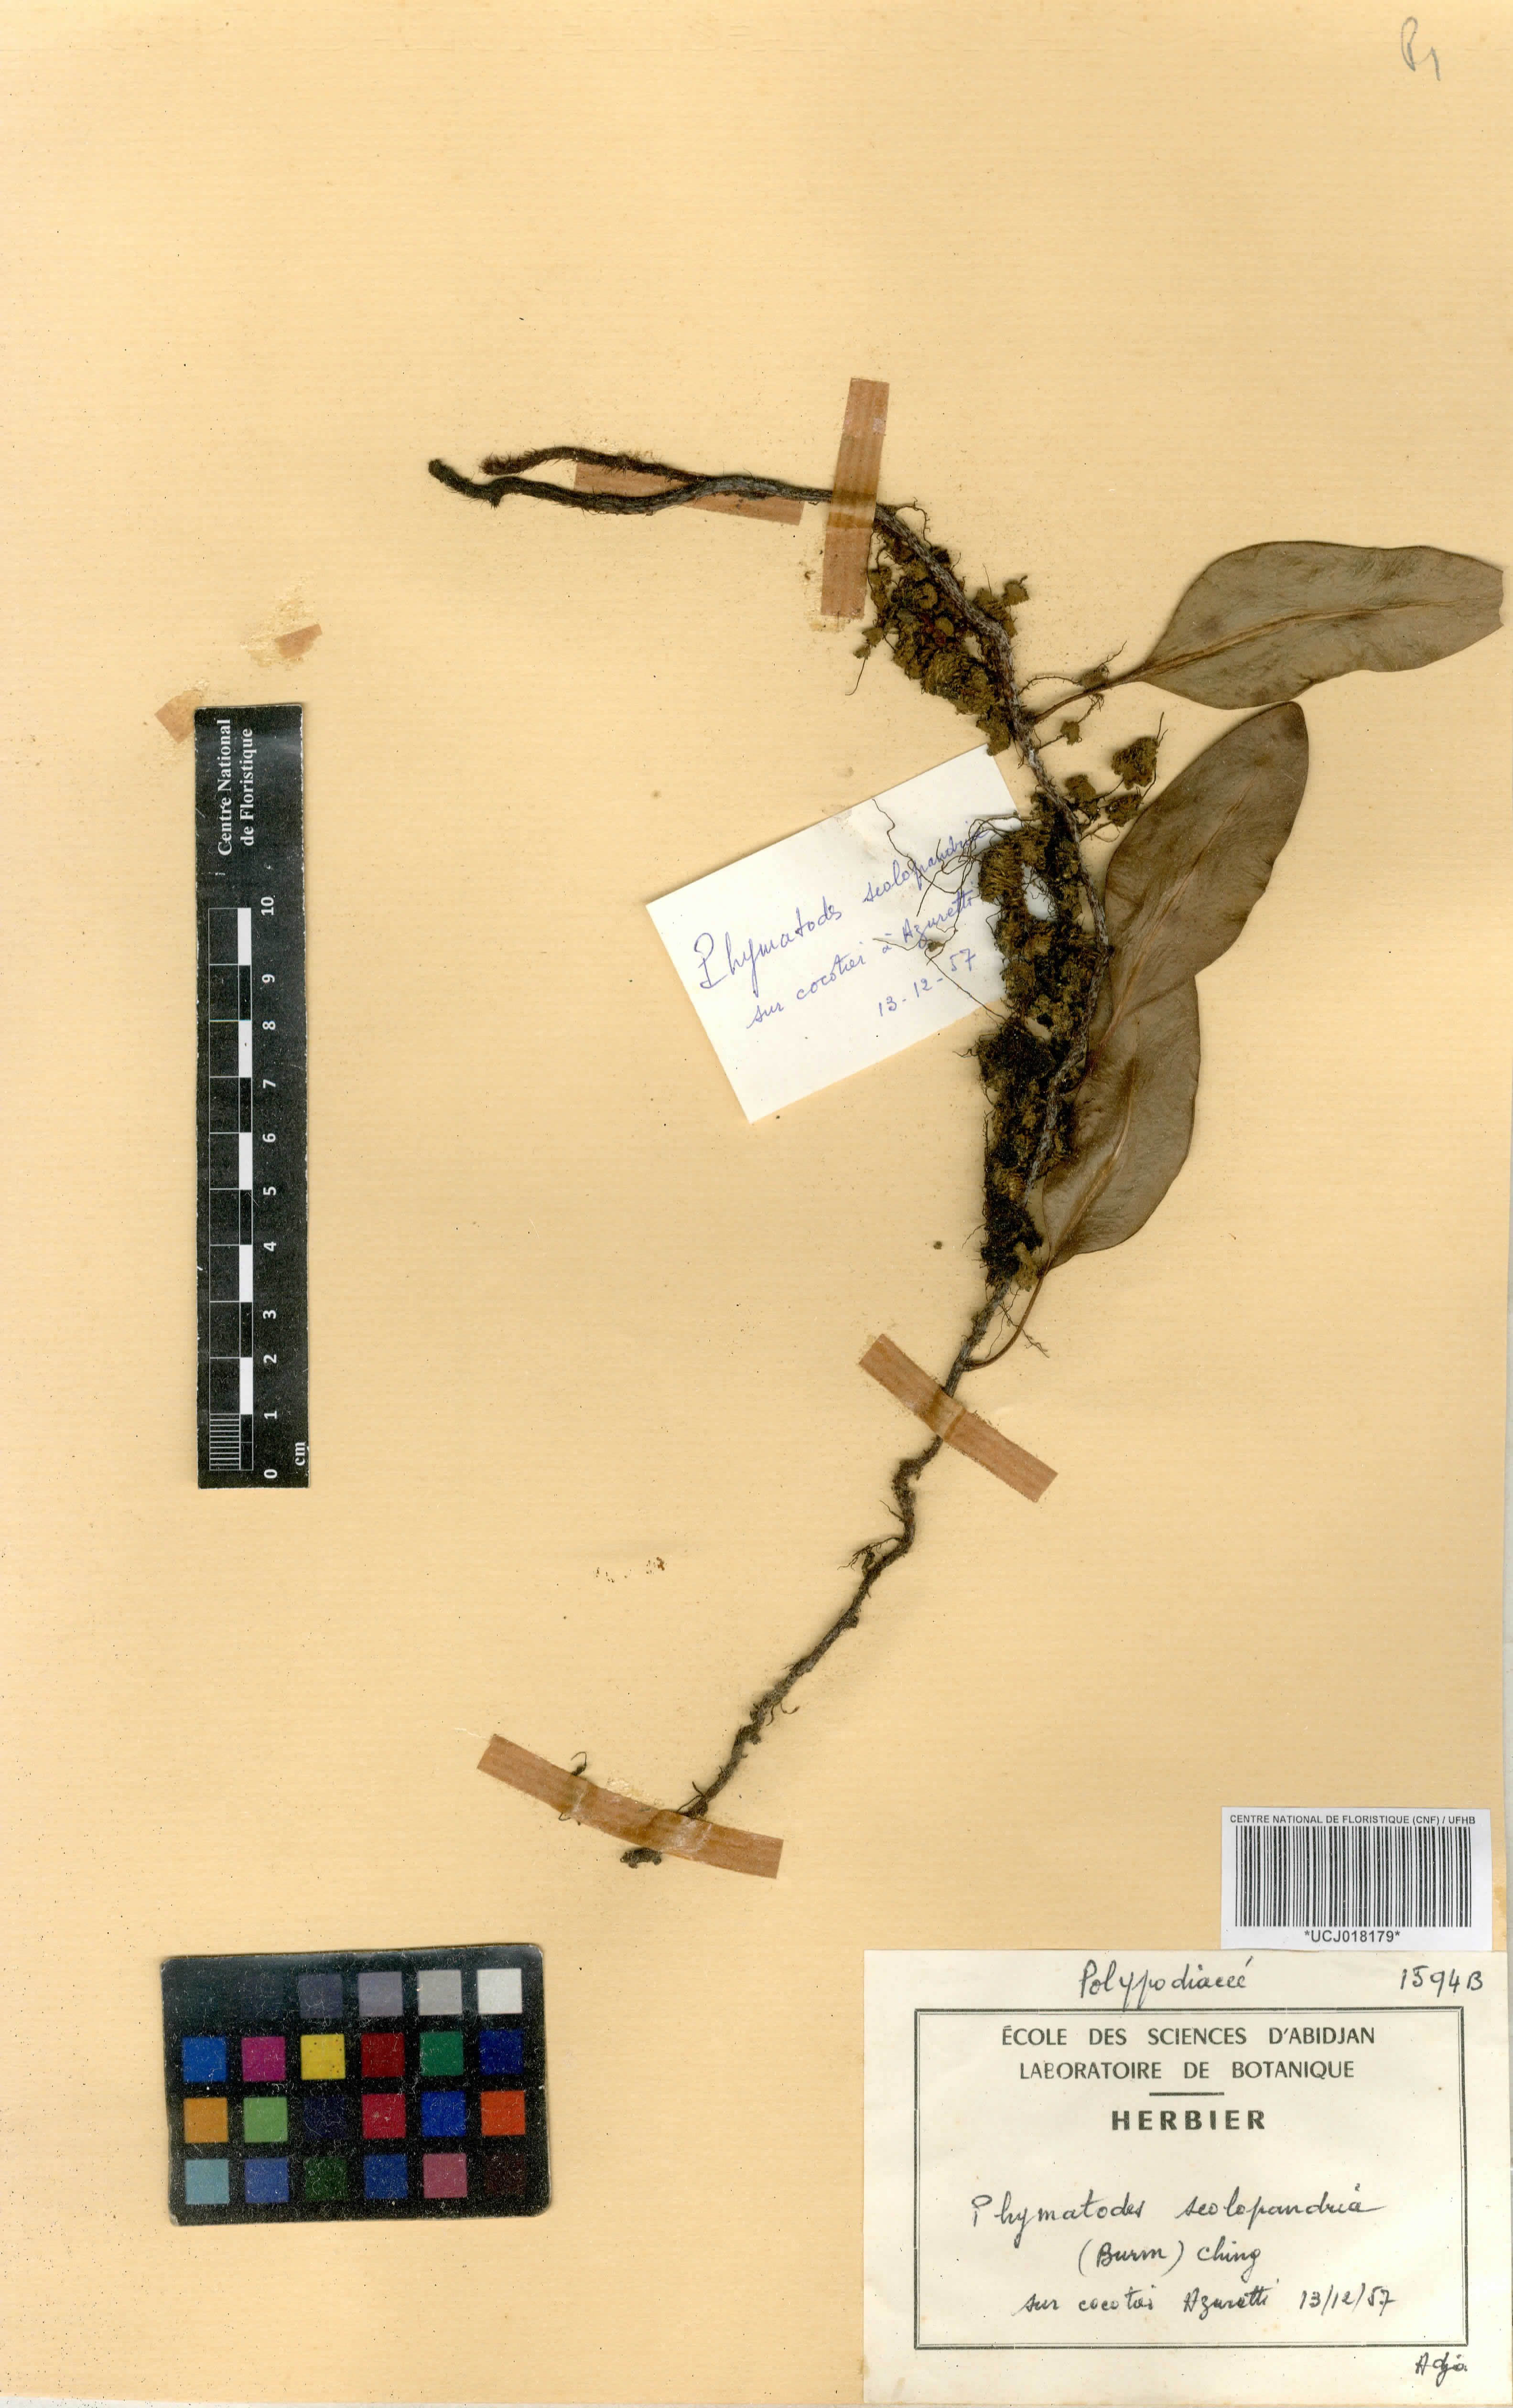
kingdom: Plantae
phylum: Tracheophyta
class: Polypodiopsida
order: Polypodiales
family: Polypodiaceae
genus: Microsorum
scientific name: Microsorum scolopendria
